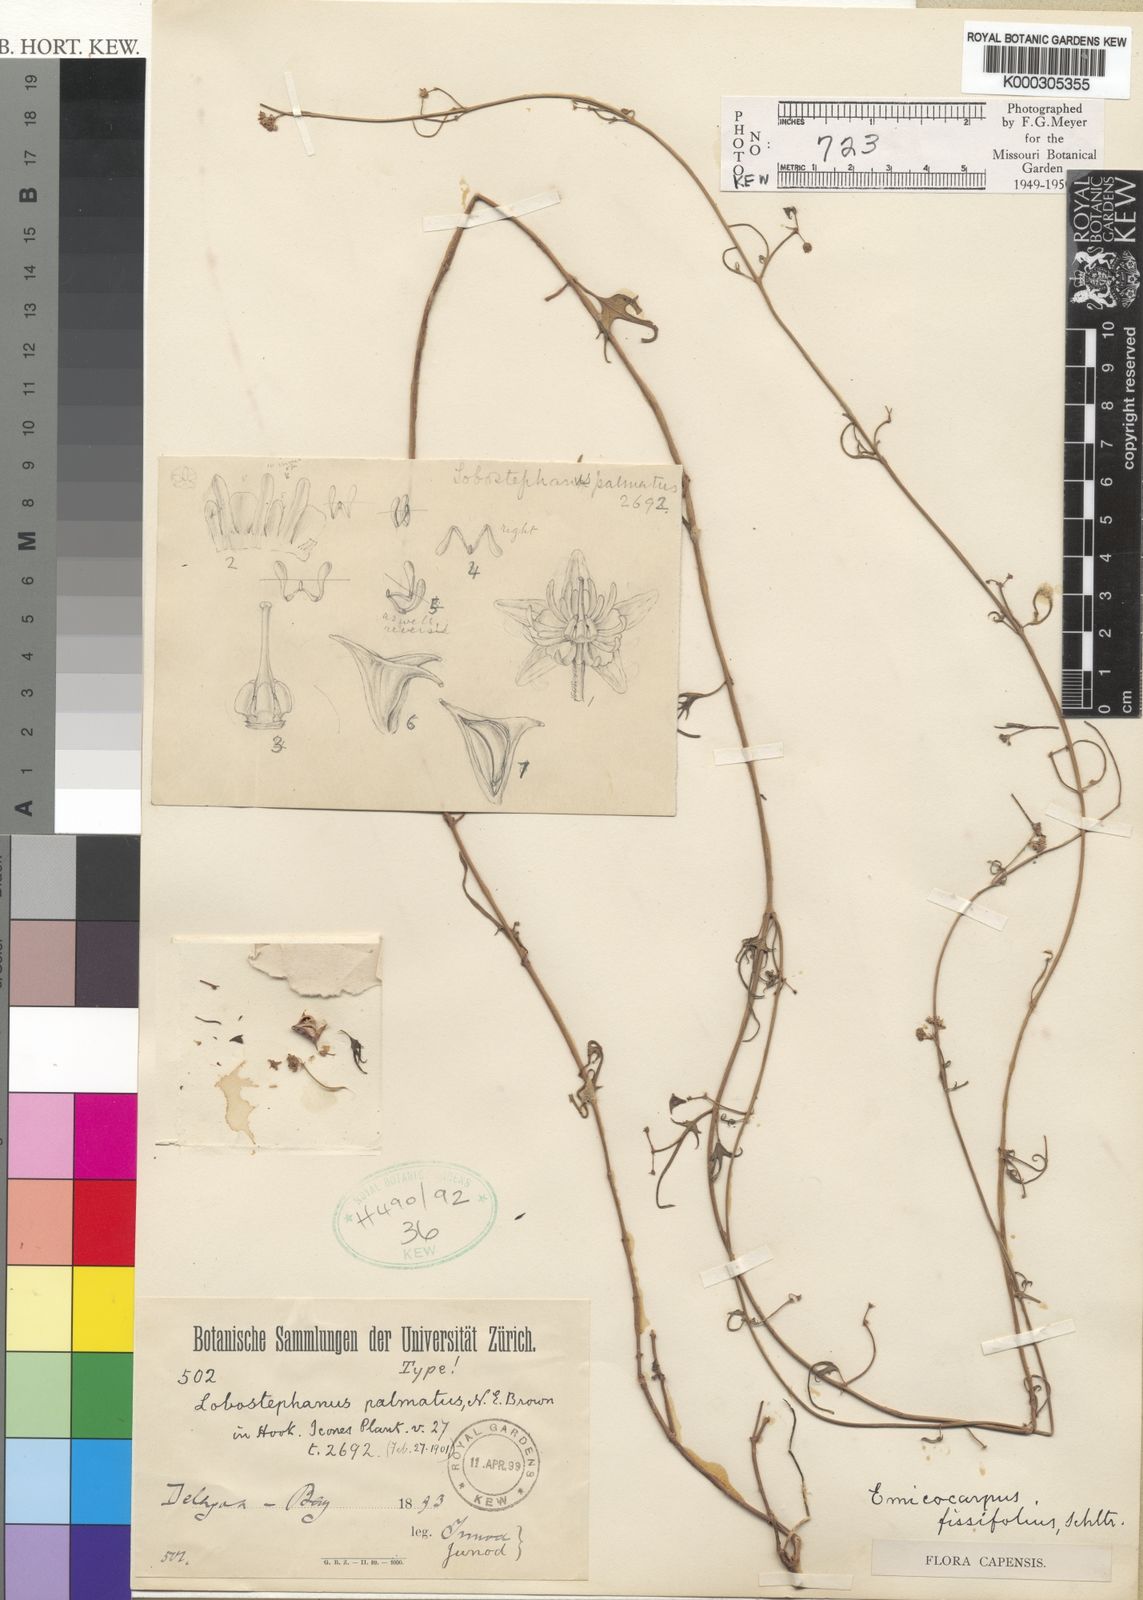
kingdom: Plantae
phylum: Tracheophyta
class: Magnoliopsida
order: Gentianales
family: Apocynaceae
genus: Emicocarpus
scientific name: Emicocarpus fissifolius
